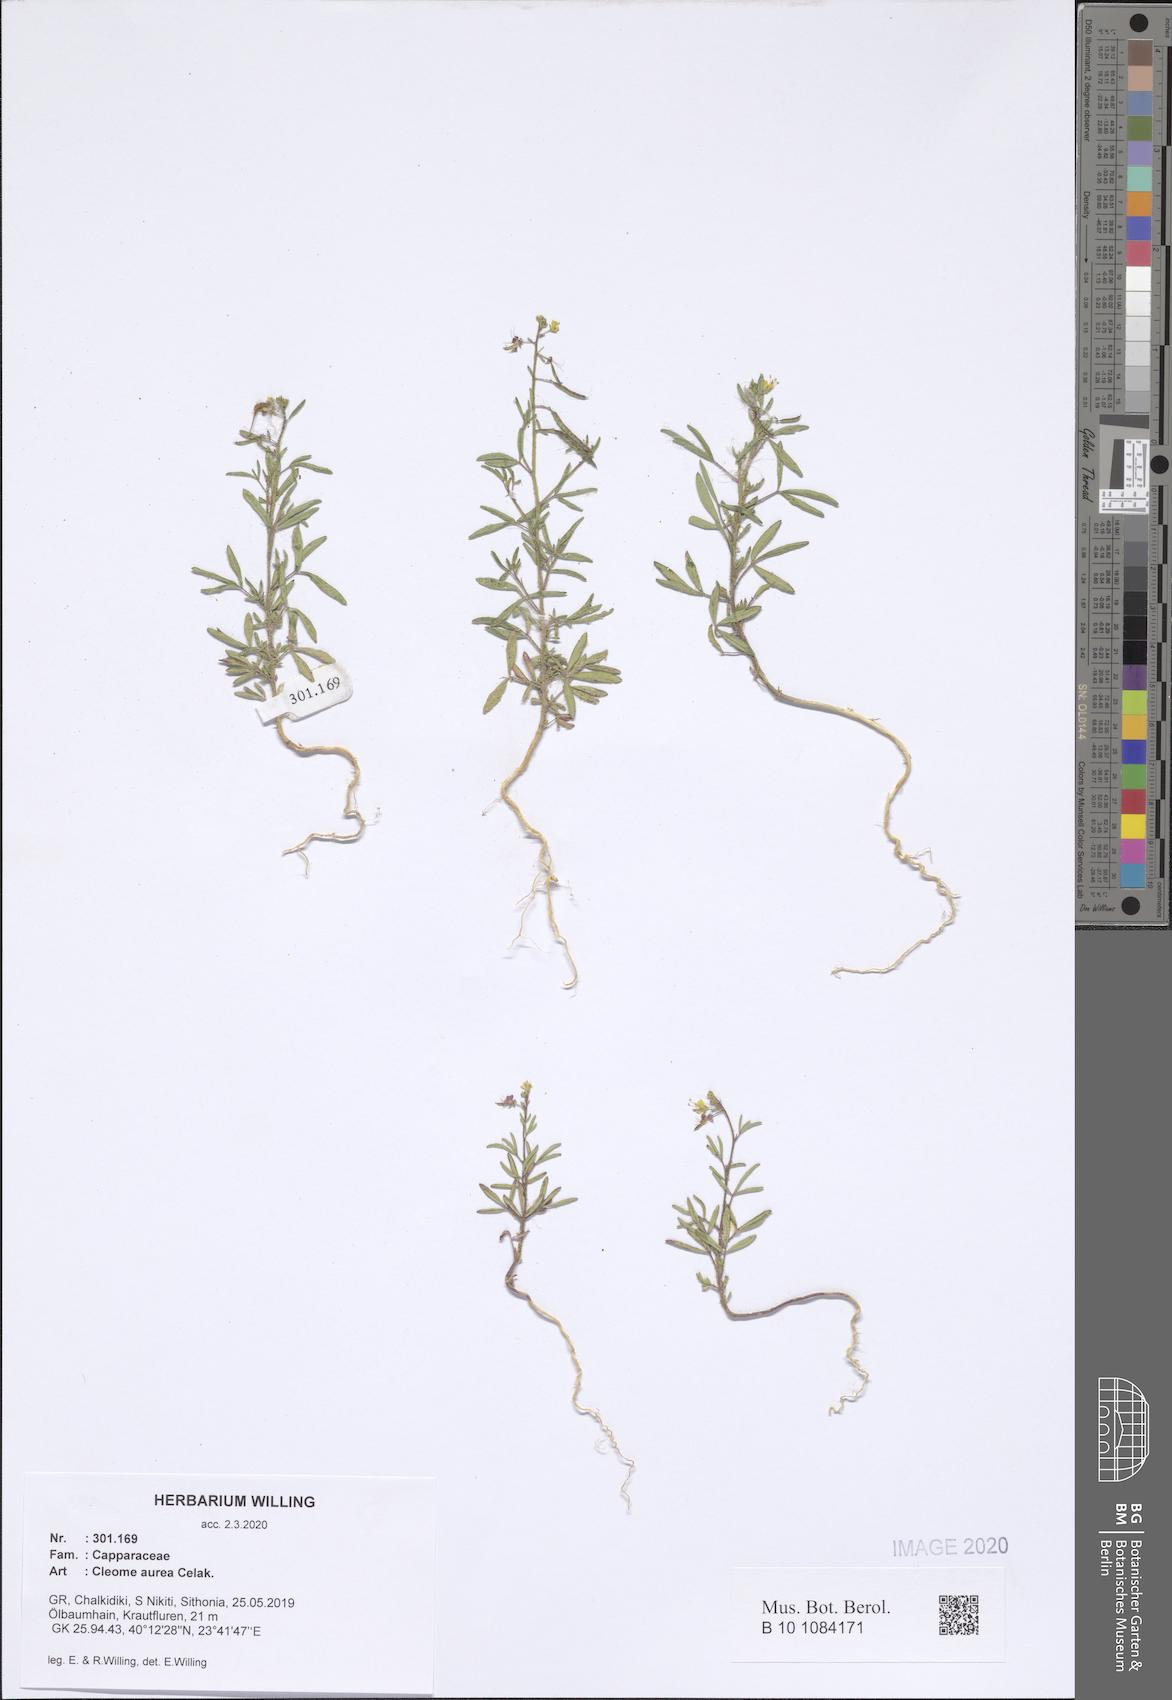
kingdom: Plantae
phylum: Tracheophyta
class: Magnoliopsida
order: Brassicales
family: Cleomaceae
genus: Cleome
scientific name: Cleome ornithopodioides
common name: Bird spiderflower
